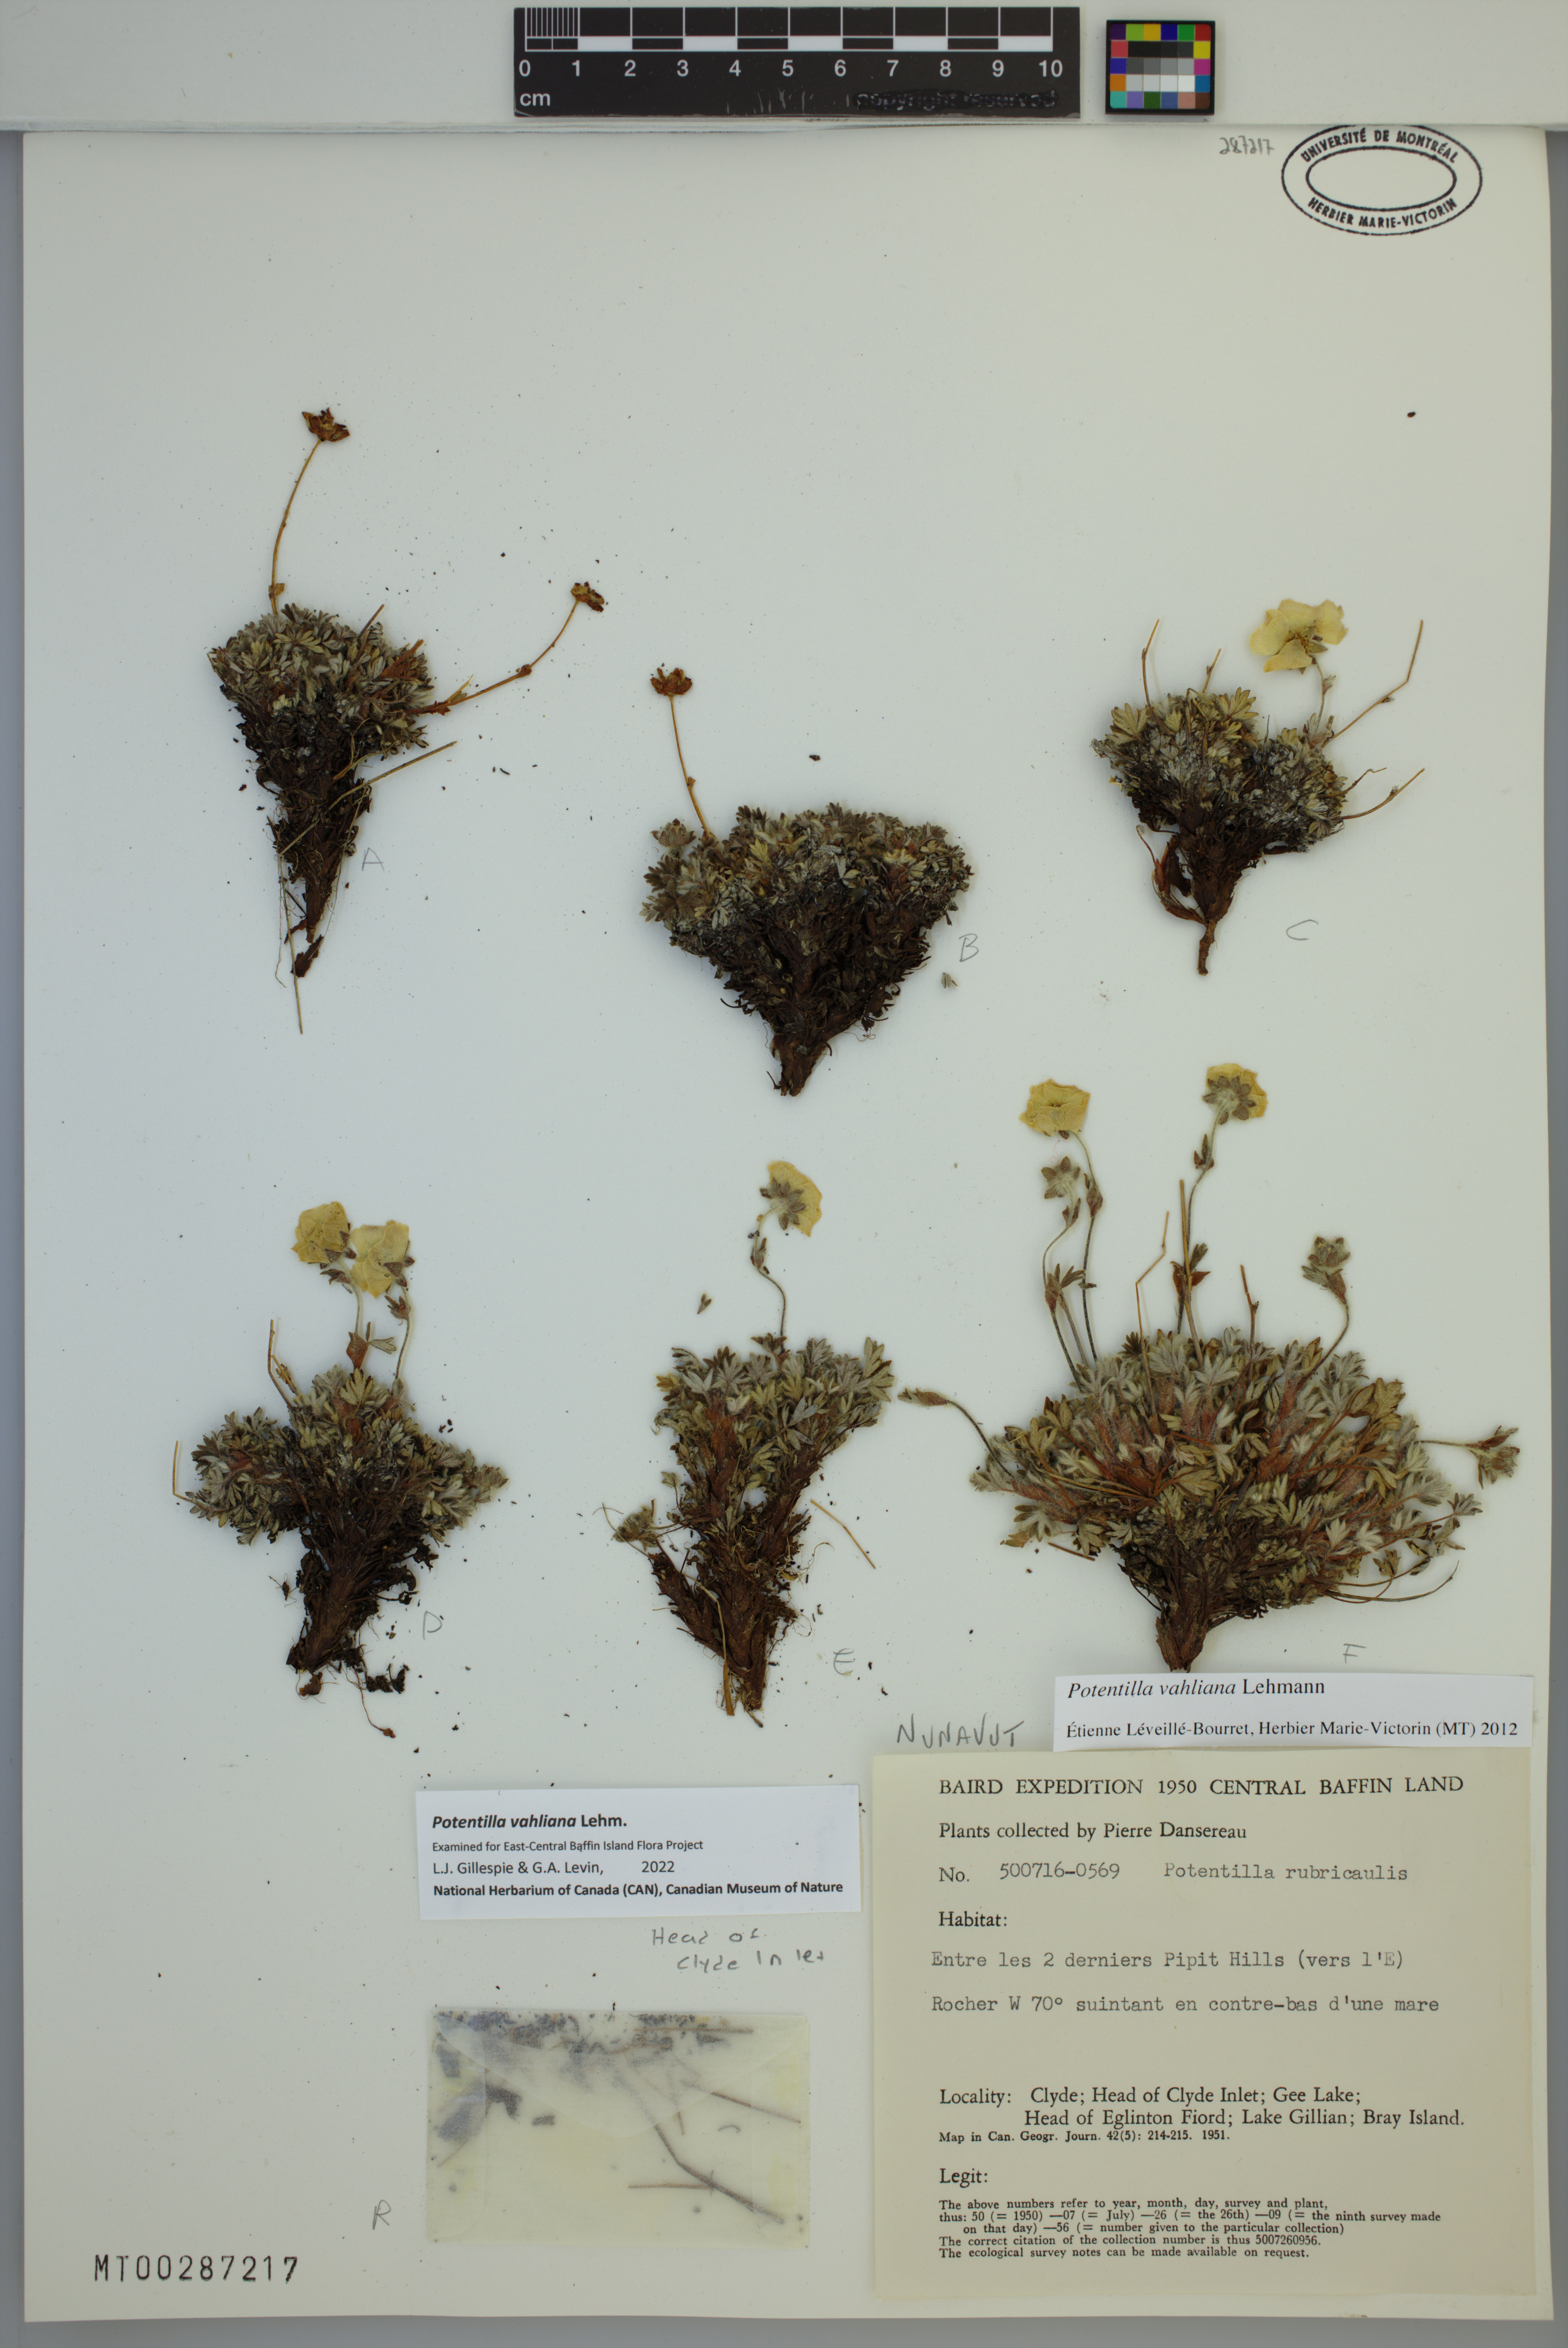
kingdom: Plantae
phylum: Tracheophyta
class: Magnoliopsida
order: Rosales
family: Rosaceae
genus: Potentilla
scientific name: Potentilla vahliana
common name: Vahl's cinquefoil
